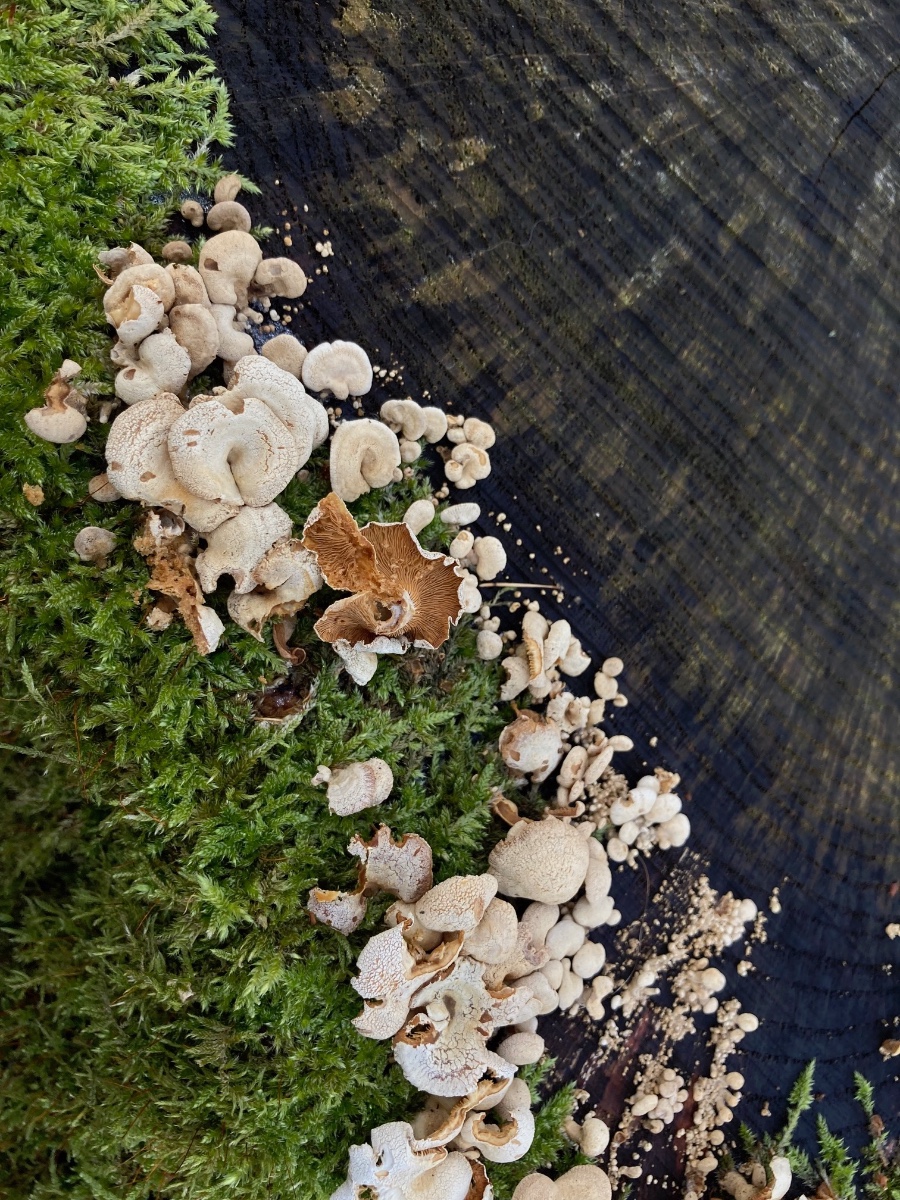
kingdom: Fungi
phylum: Basidiomycota
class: Agaricomycetes
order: Agaricales
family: Mycenaceae
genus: Panellus
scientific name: Panellus stipticus
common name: kliddet epaulethat
